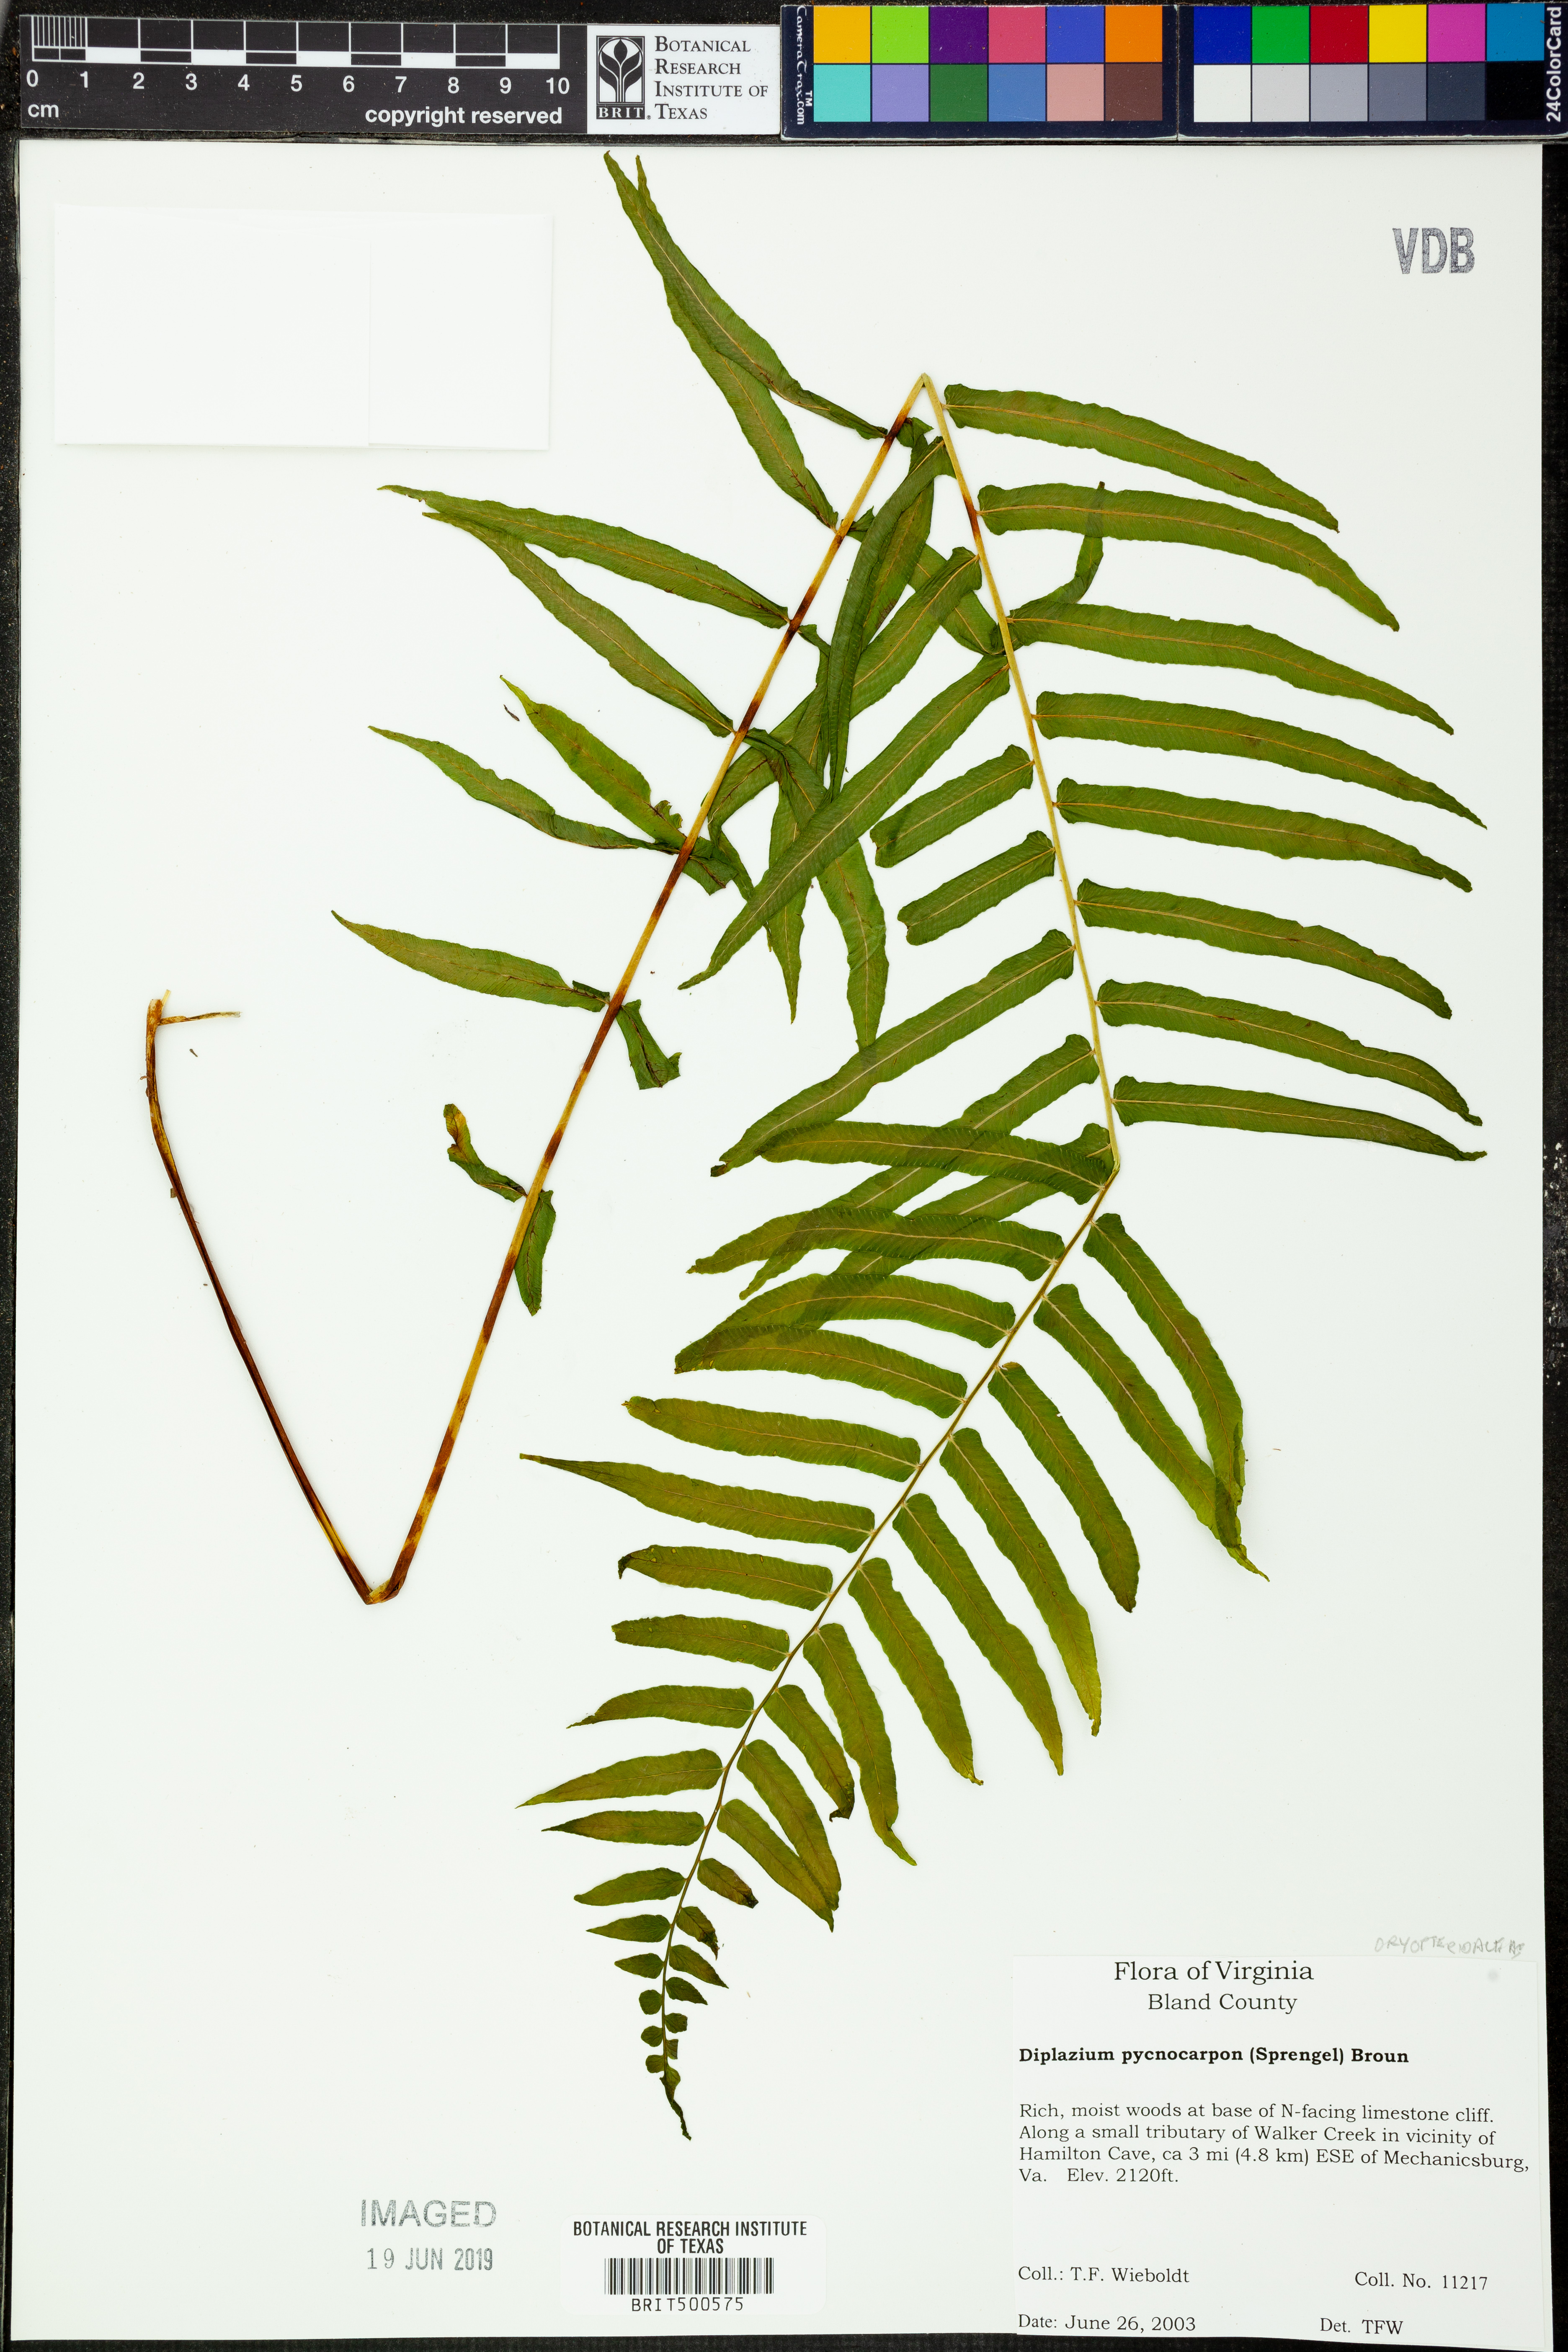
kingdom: Plantae
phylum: Tracheophyta
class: Polypodiopsida
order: Polypodiales
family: Diplaziopsidaceae
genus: Homalosorus
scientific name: Homalosorus pycnocarpos
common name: Glade fern
